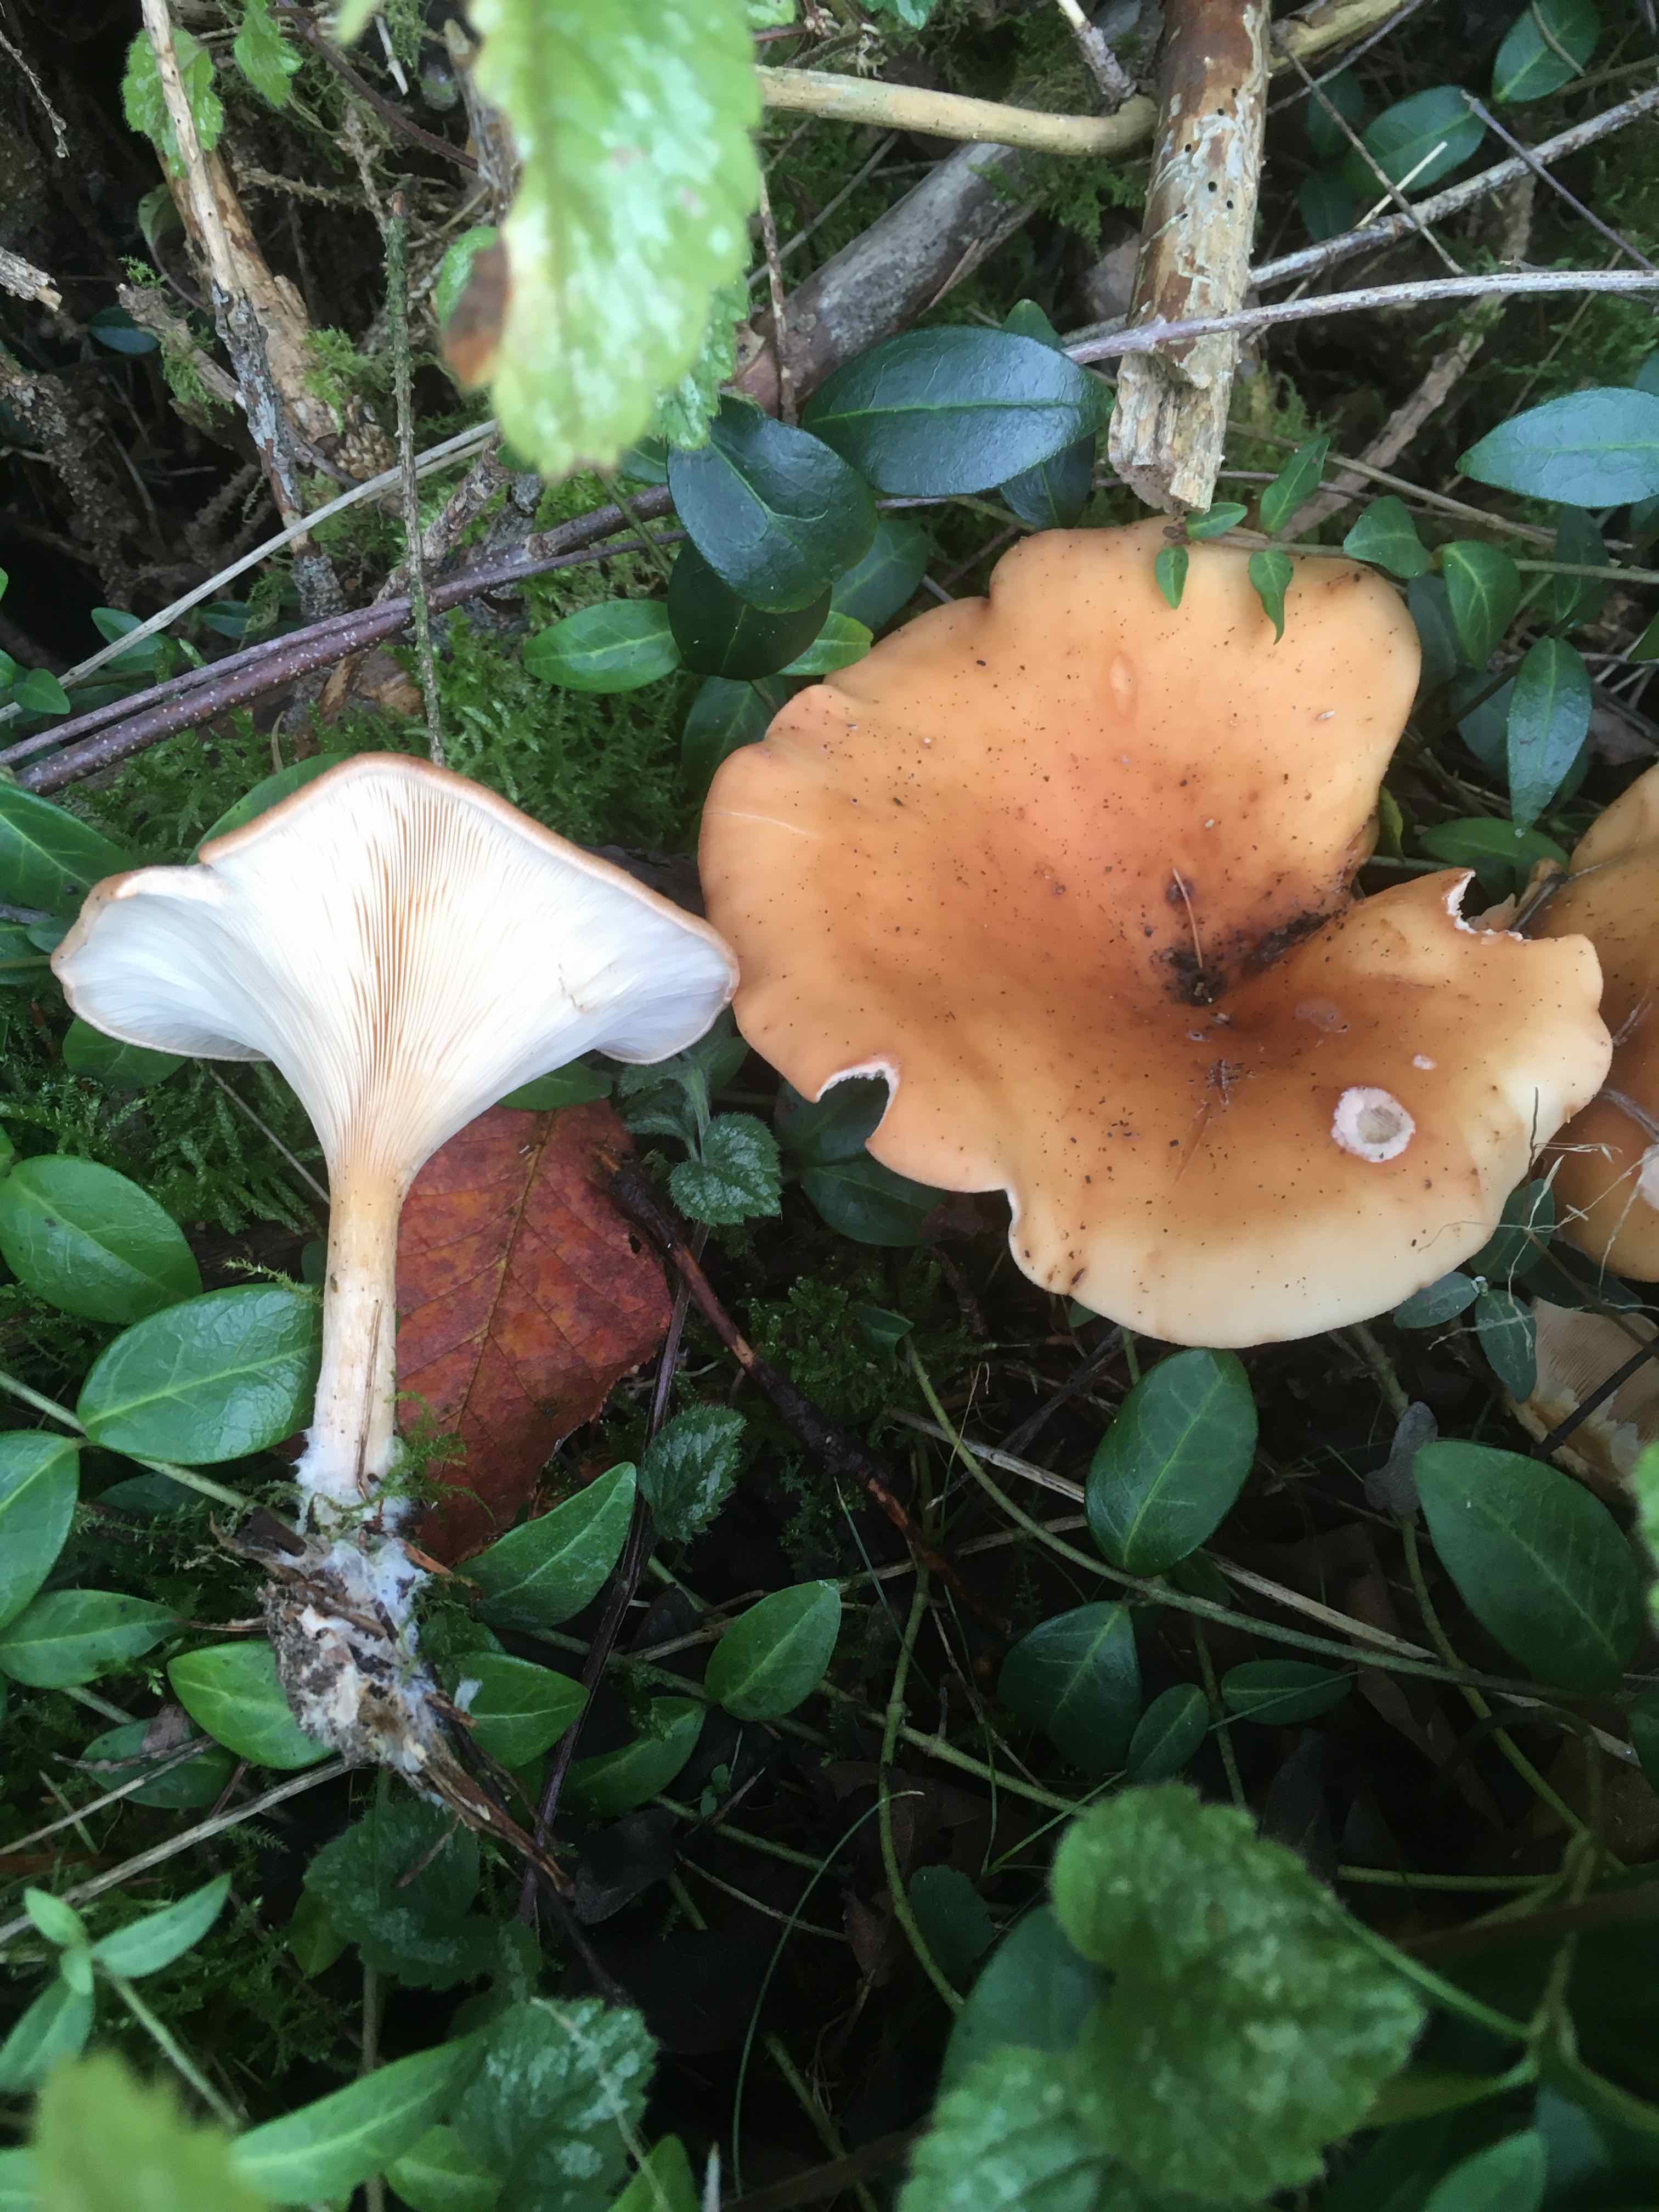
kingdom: Fungi
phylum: Basidiomycota
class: Agaricomycetes
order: Agaricales
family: Tricholomataceae
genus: Paralepista
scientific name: Paralepista flaccida
